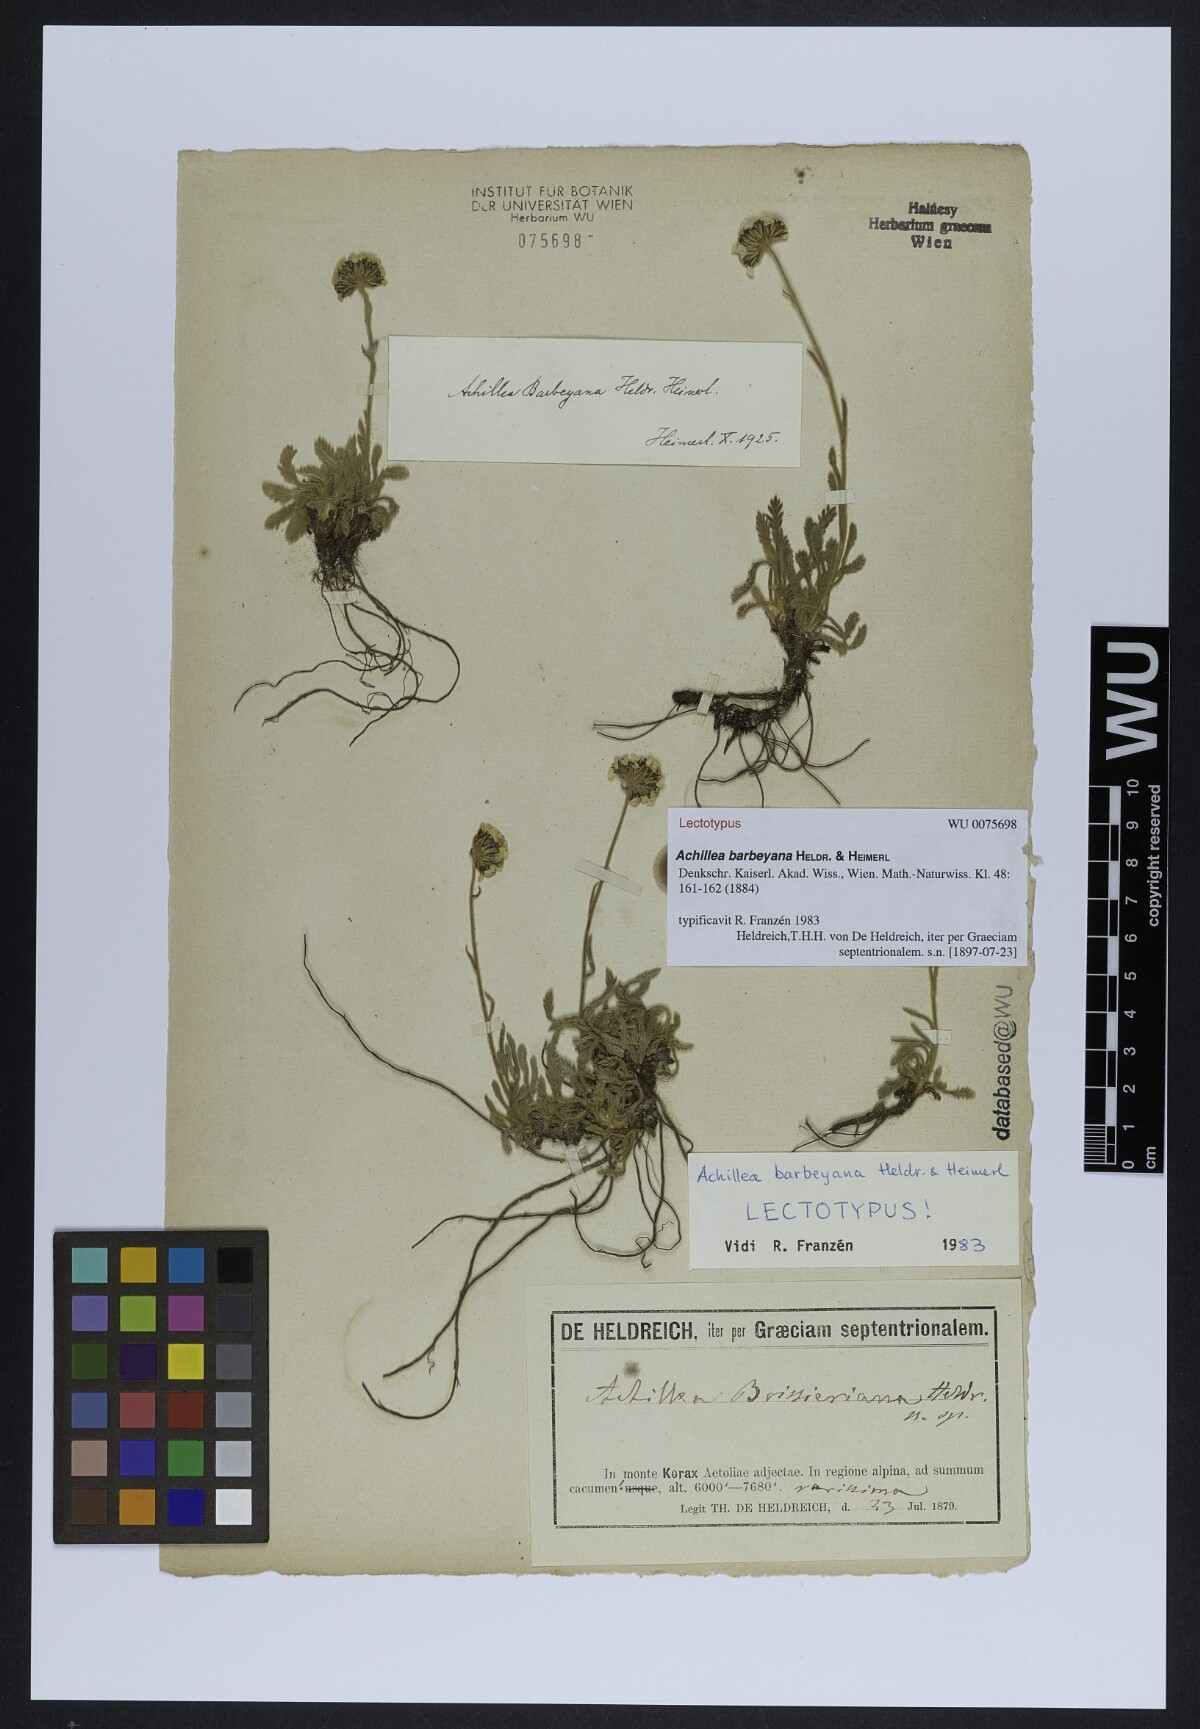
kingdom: Plantae
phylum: Tracheophyta
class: Magnoliopsida
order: Asterales
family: Asteraceae
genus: Achillea
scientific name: Achillea barbeyana
